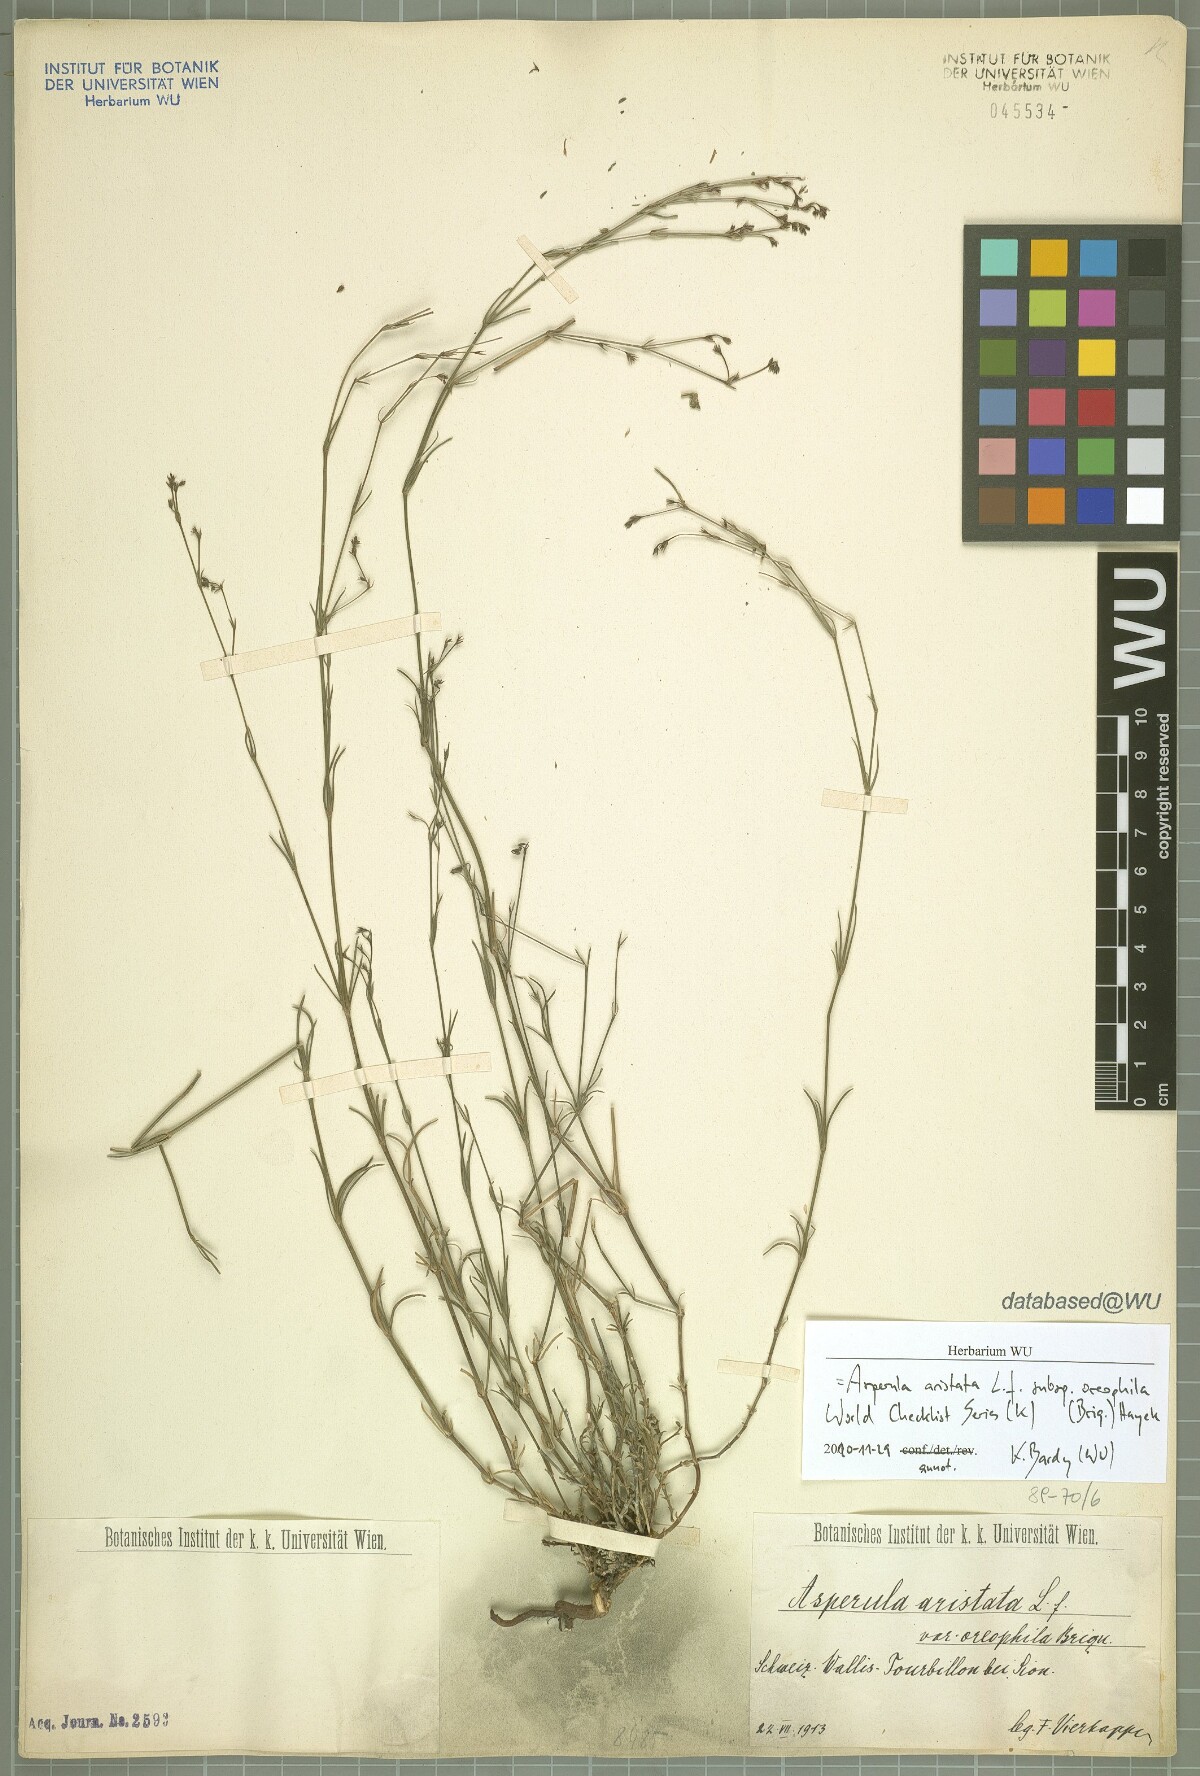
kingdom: Plantae
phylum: Tracheophyta
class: Magnoliopsida
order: Gentianales
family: Rubiaceae
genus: Cynanchica
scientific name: Cynanchica aristata
